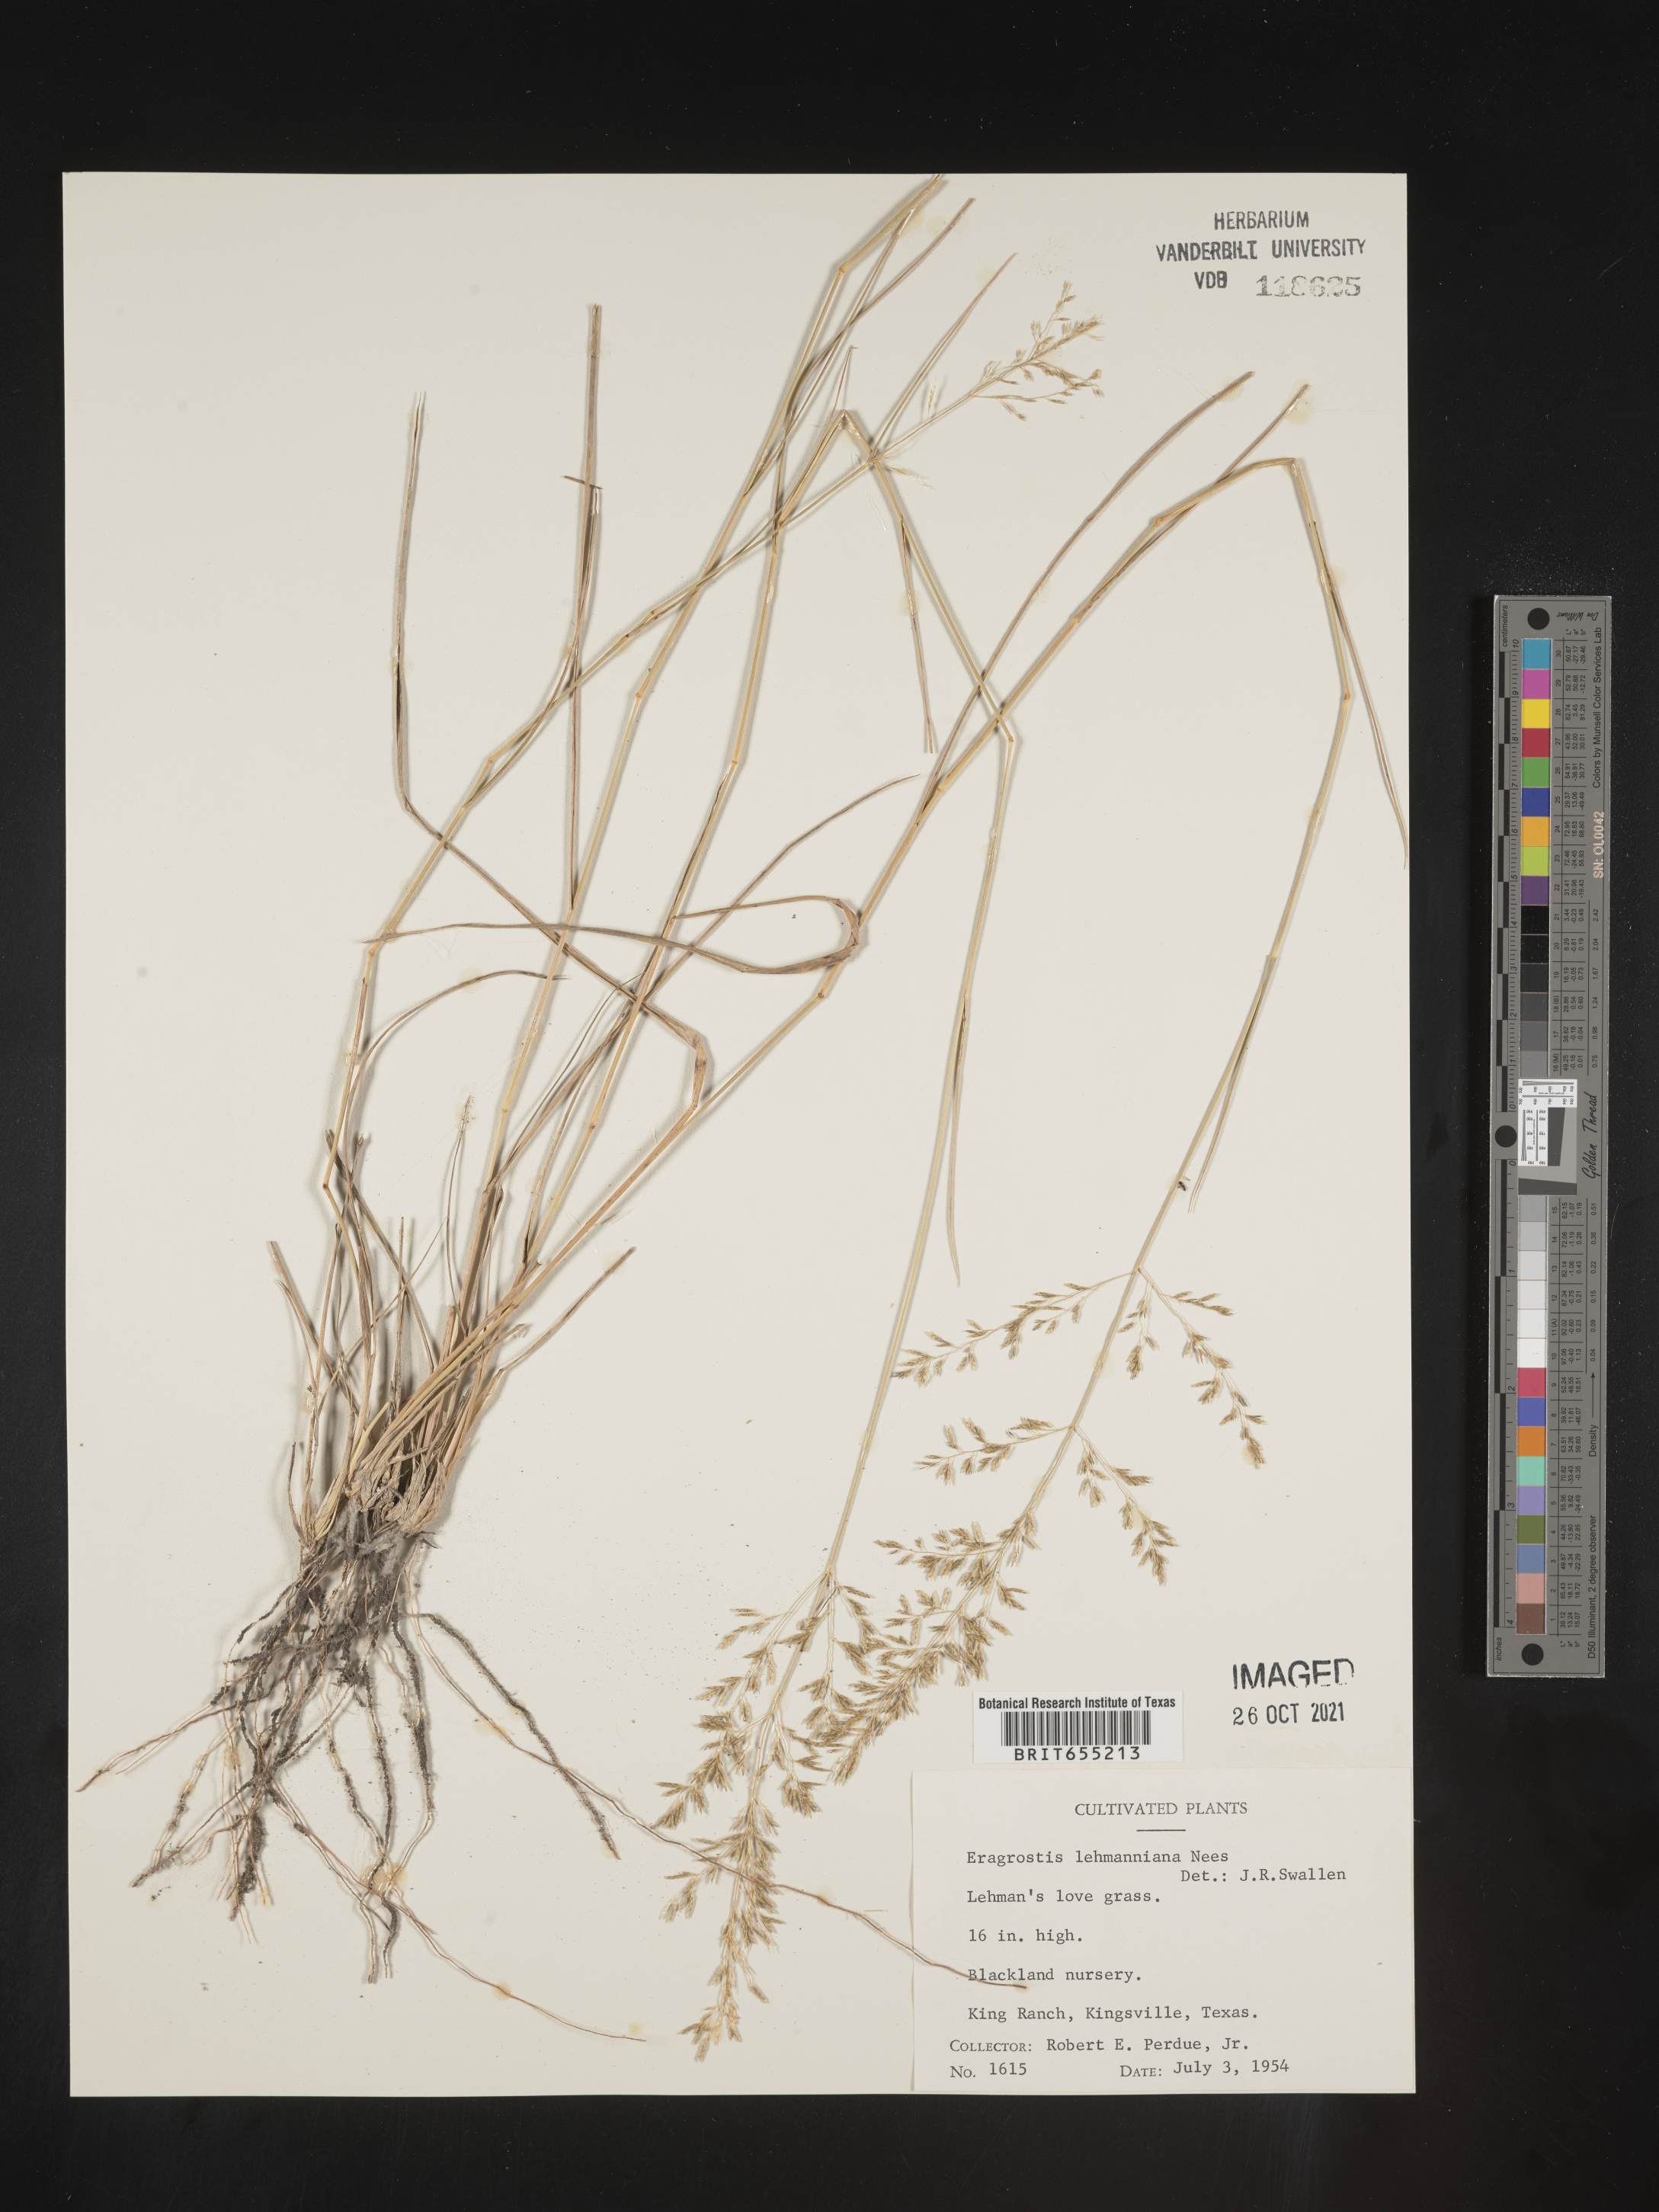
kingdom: Plantae
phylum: Tracheophyta
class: Liliopsida
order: Poales
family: Poaceae
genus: Eragrostis
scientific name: Eragrostis
